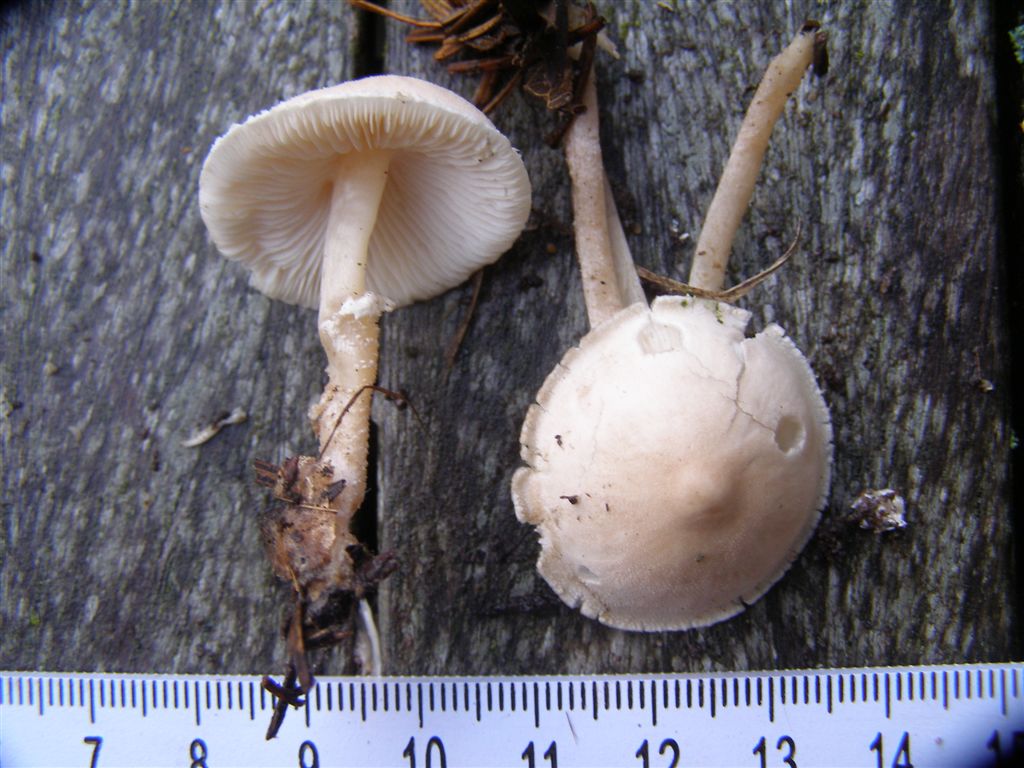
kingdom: Fungi
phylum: Basidiomycota
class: Agaricomycetes
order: Agaricales
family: Tricholomataceae
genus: Cystoderma
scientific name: Cystoderma carcharias
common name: rødgrå grynhat
